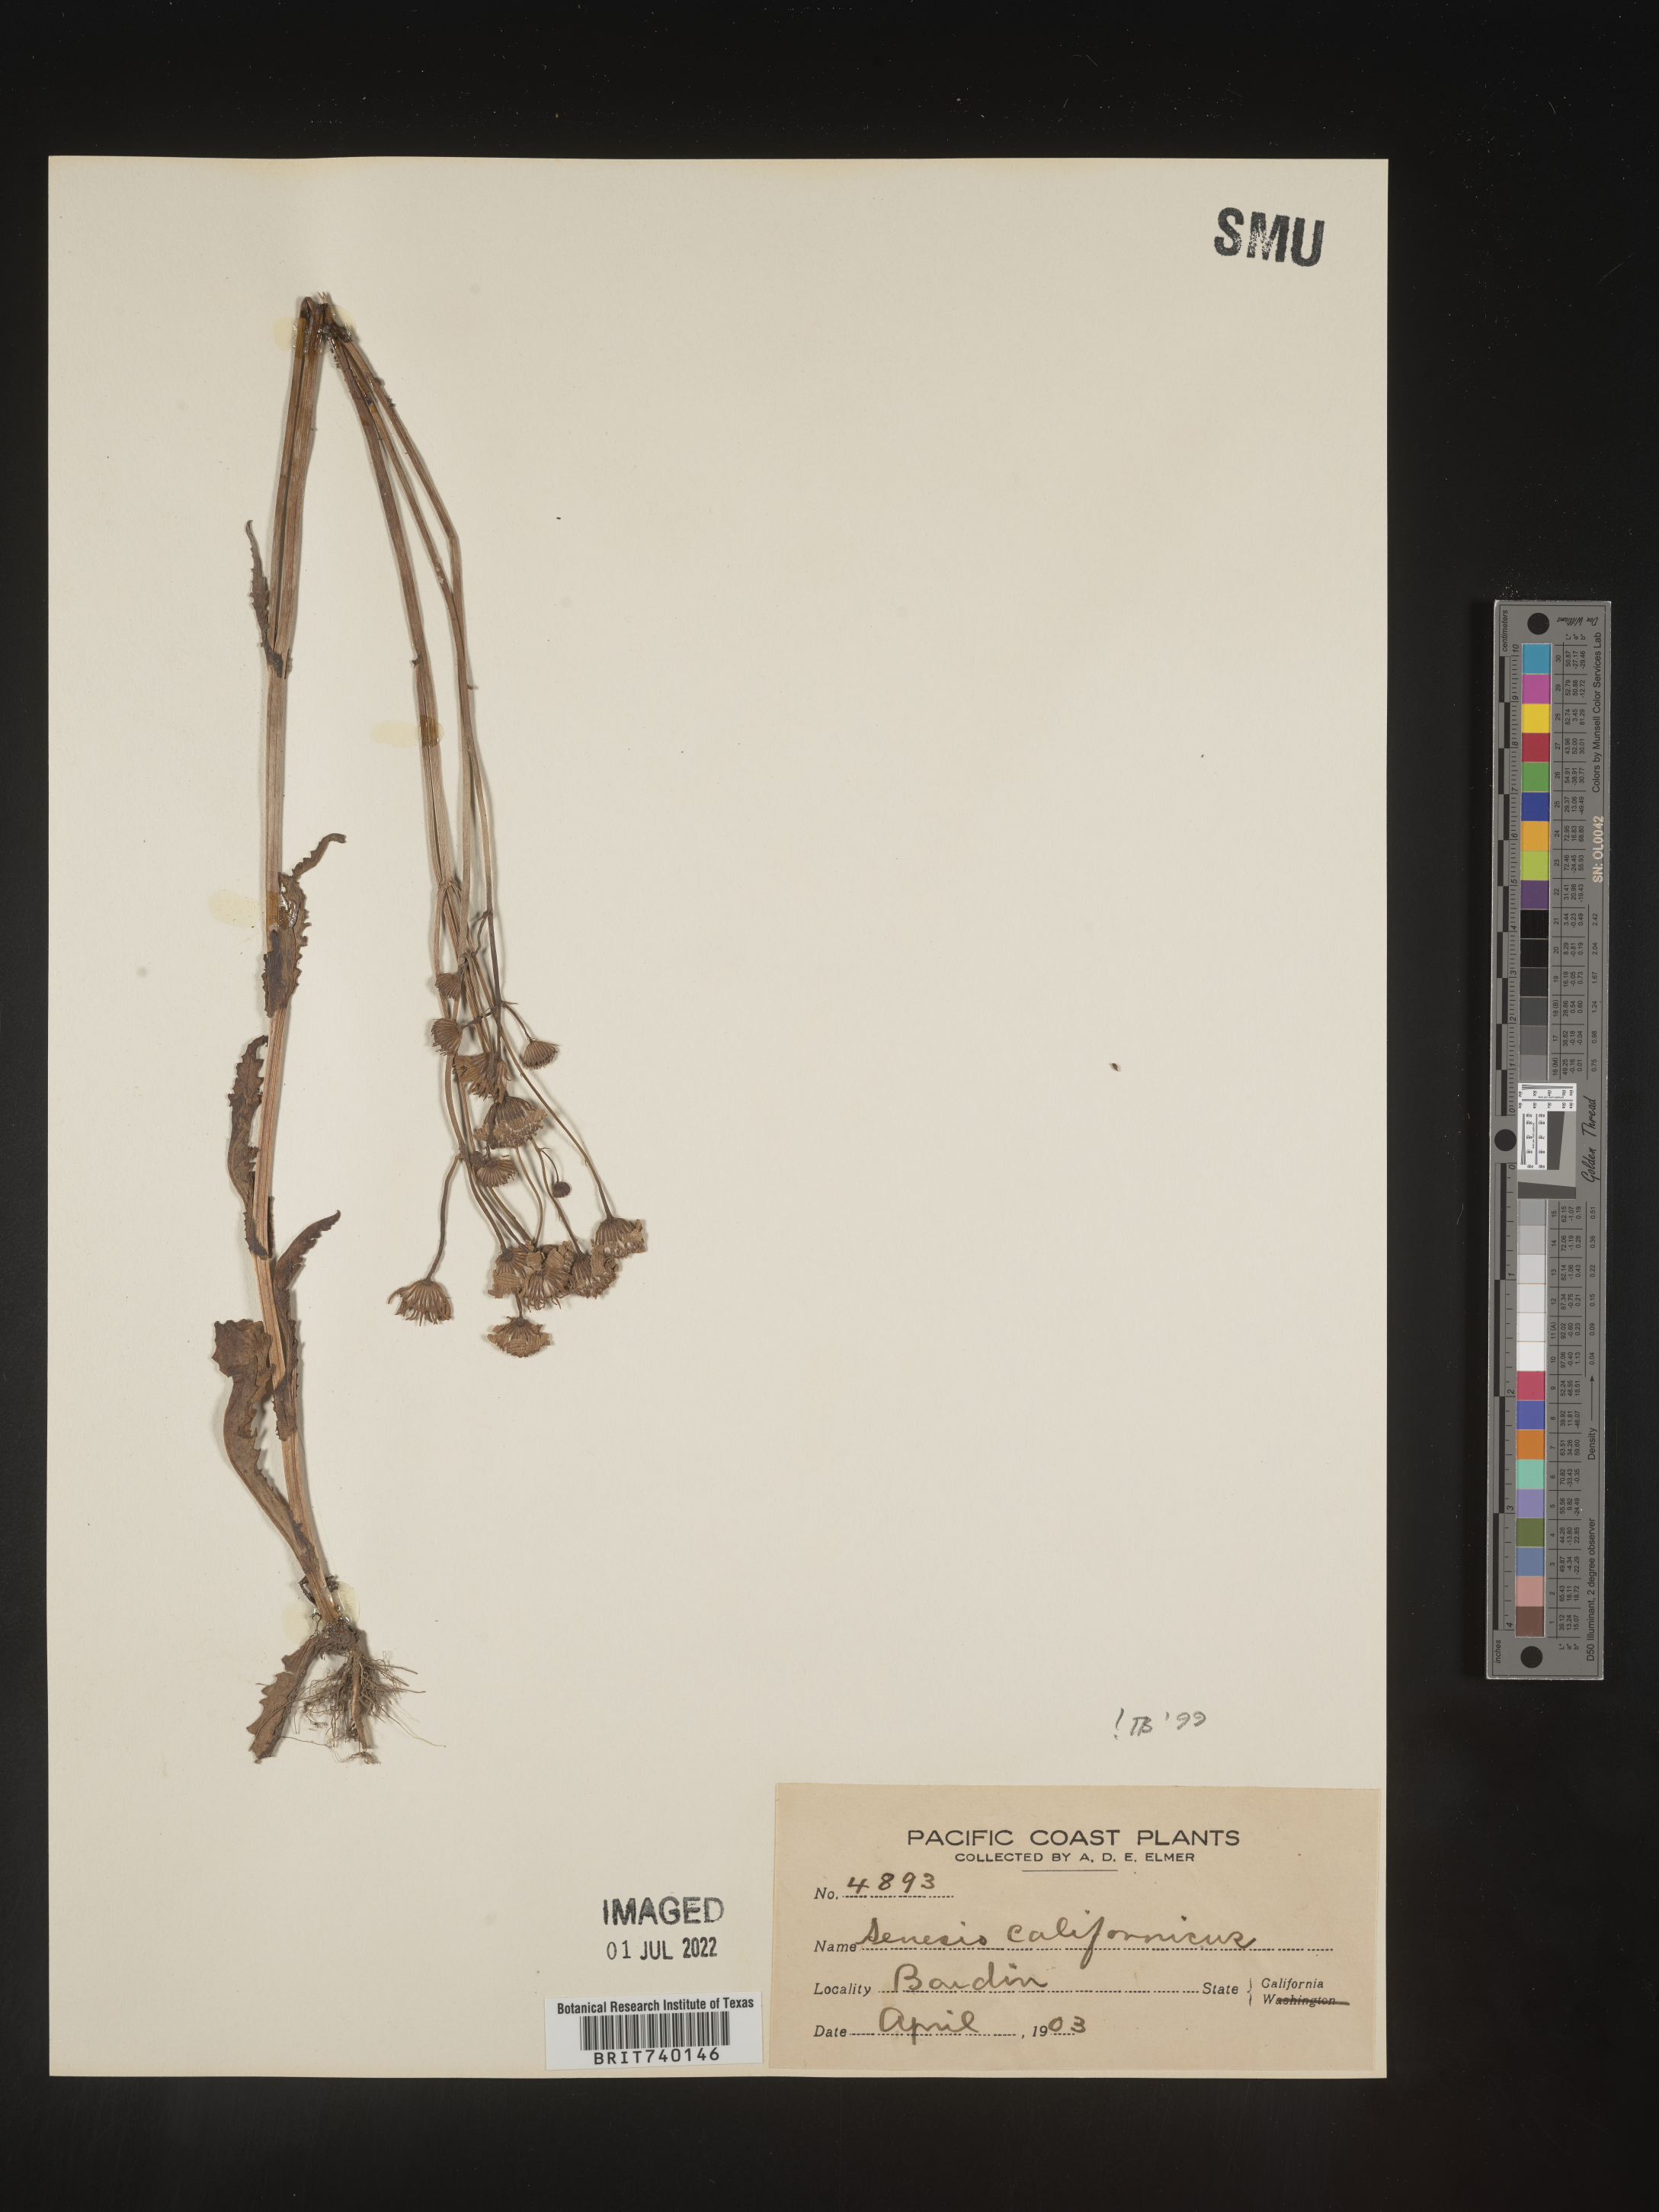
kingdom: Plantae
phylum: Tracheophyta
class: Magnoliopsida
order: Asterales
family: Asteraceae
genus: Senecio
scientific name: Senecio californicus
